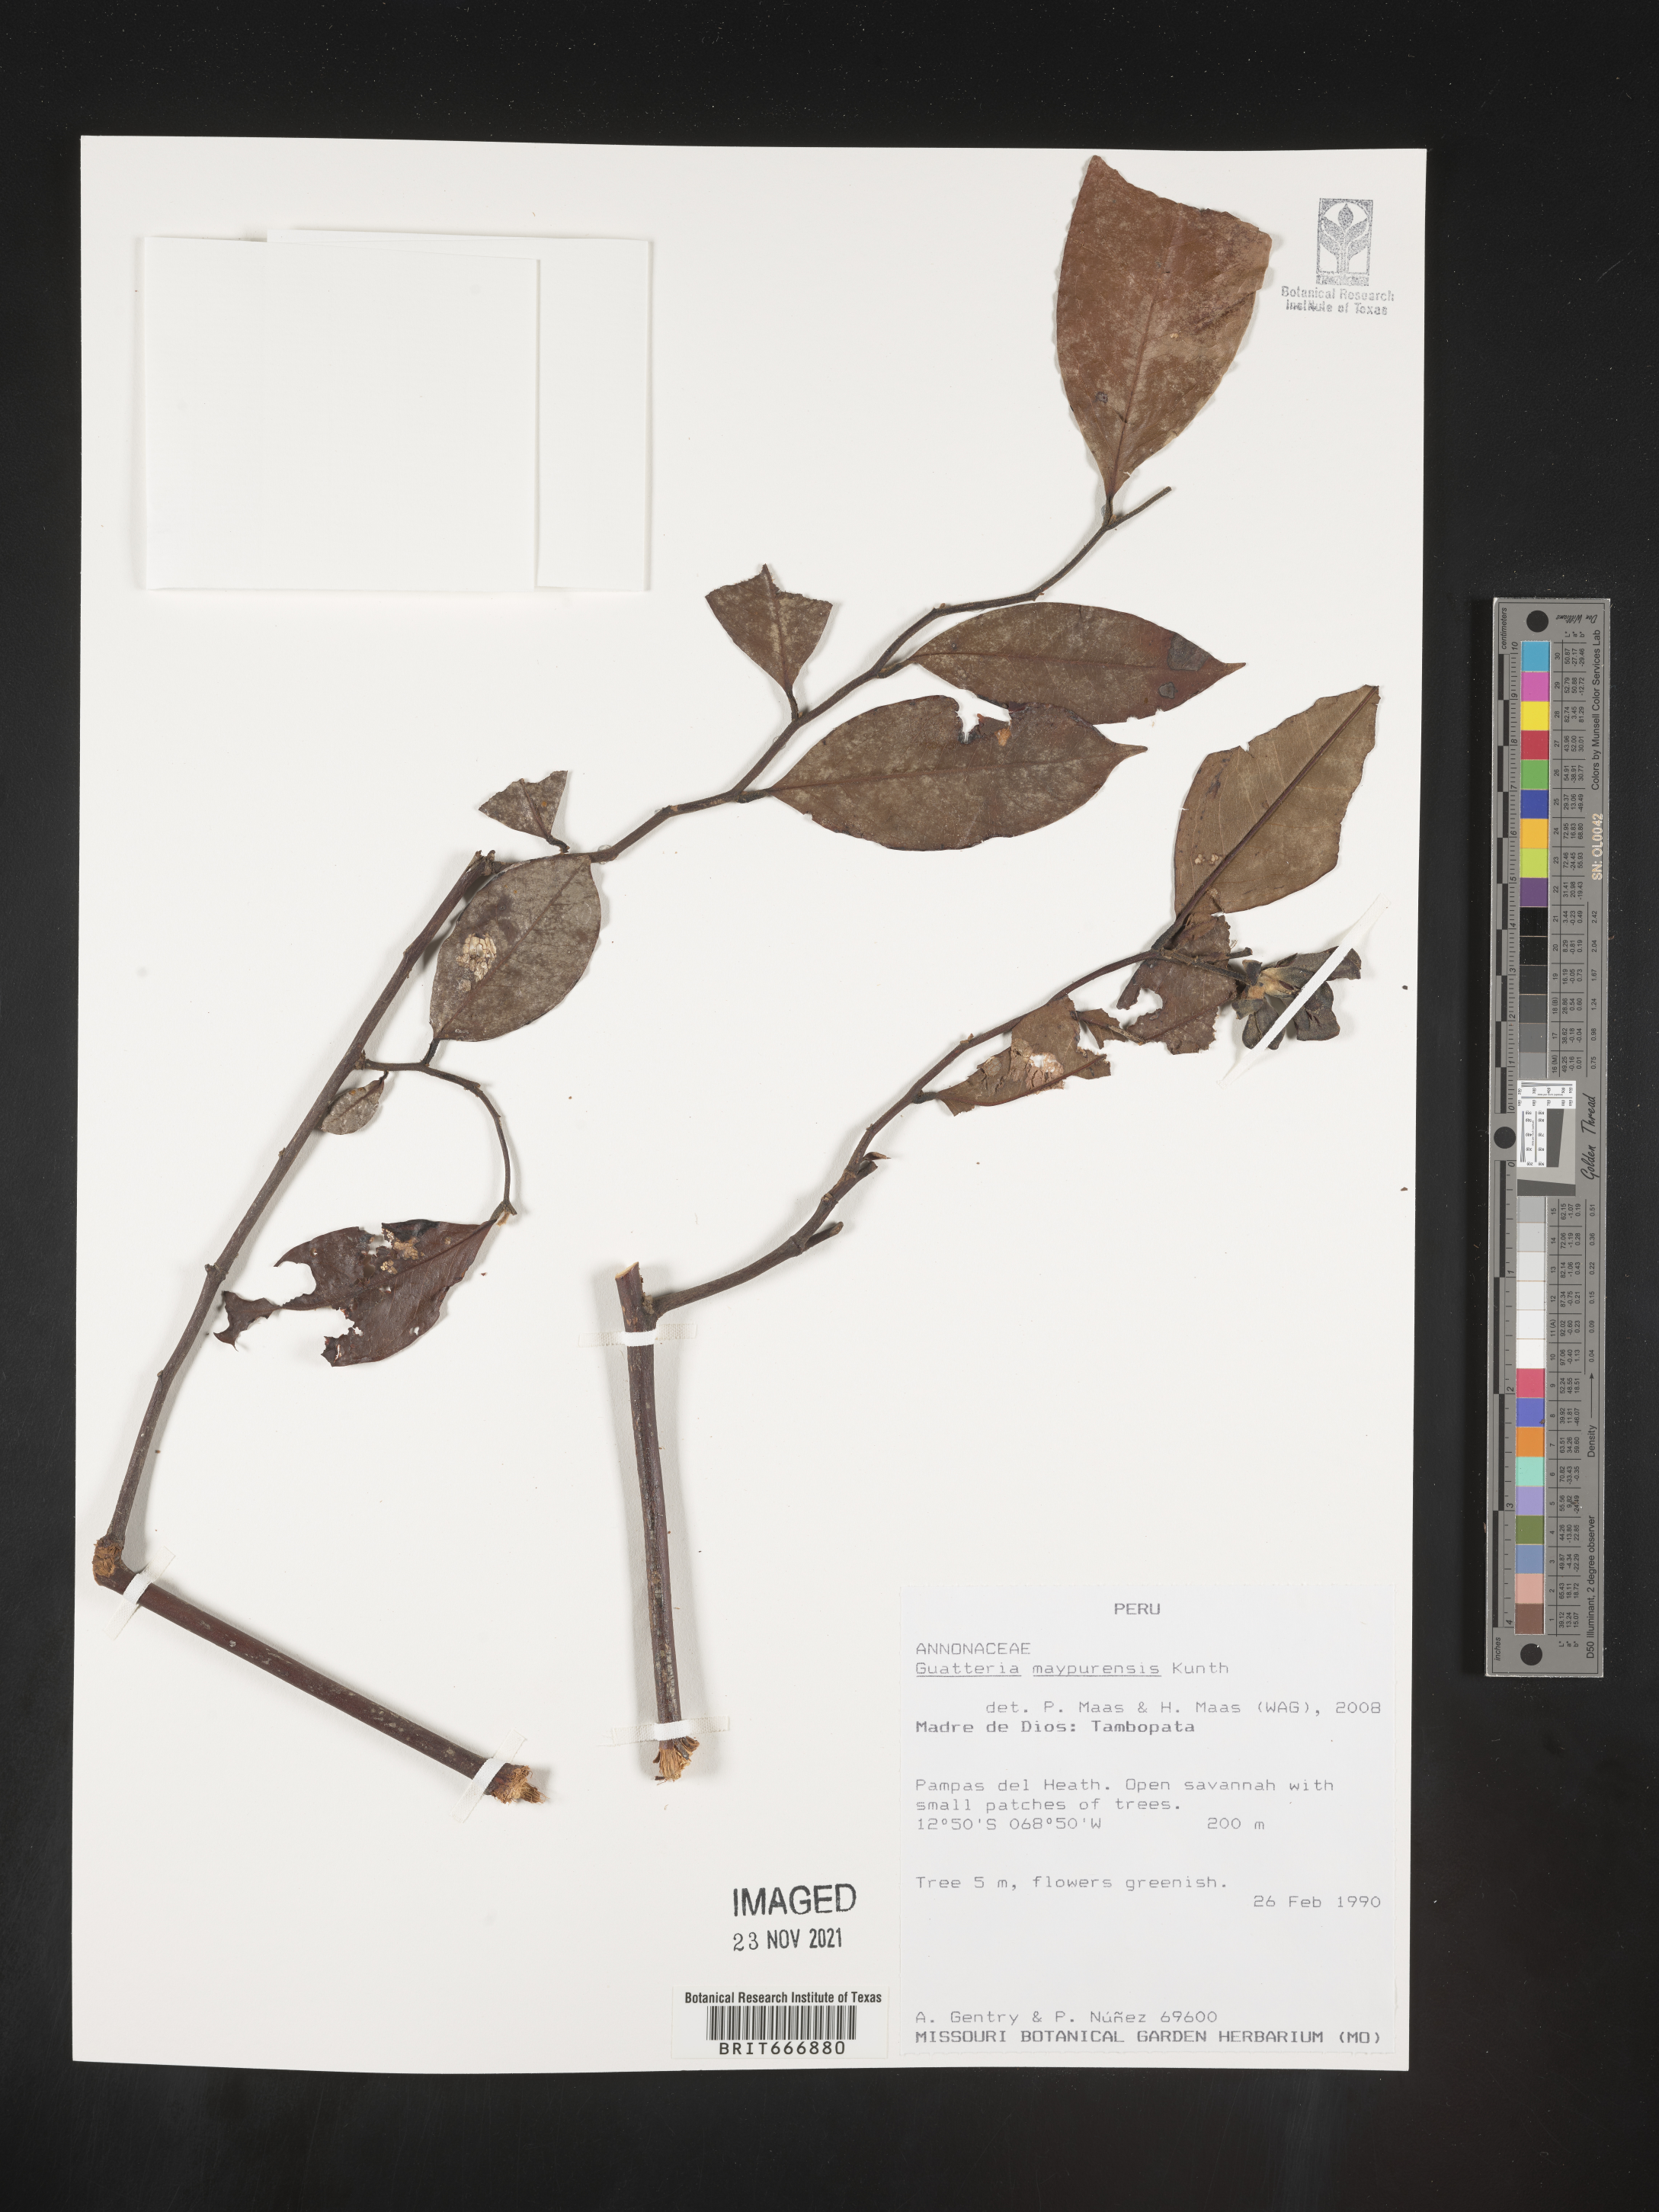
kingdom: Plantae
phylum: Tracheophyta
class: Magnoliopsida
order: Magnoliales
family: Annonaceae
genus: Guatteria
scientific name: Guatteria
